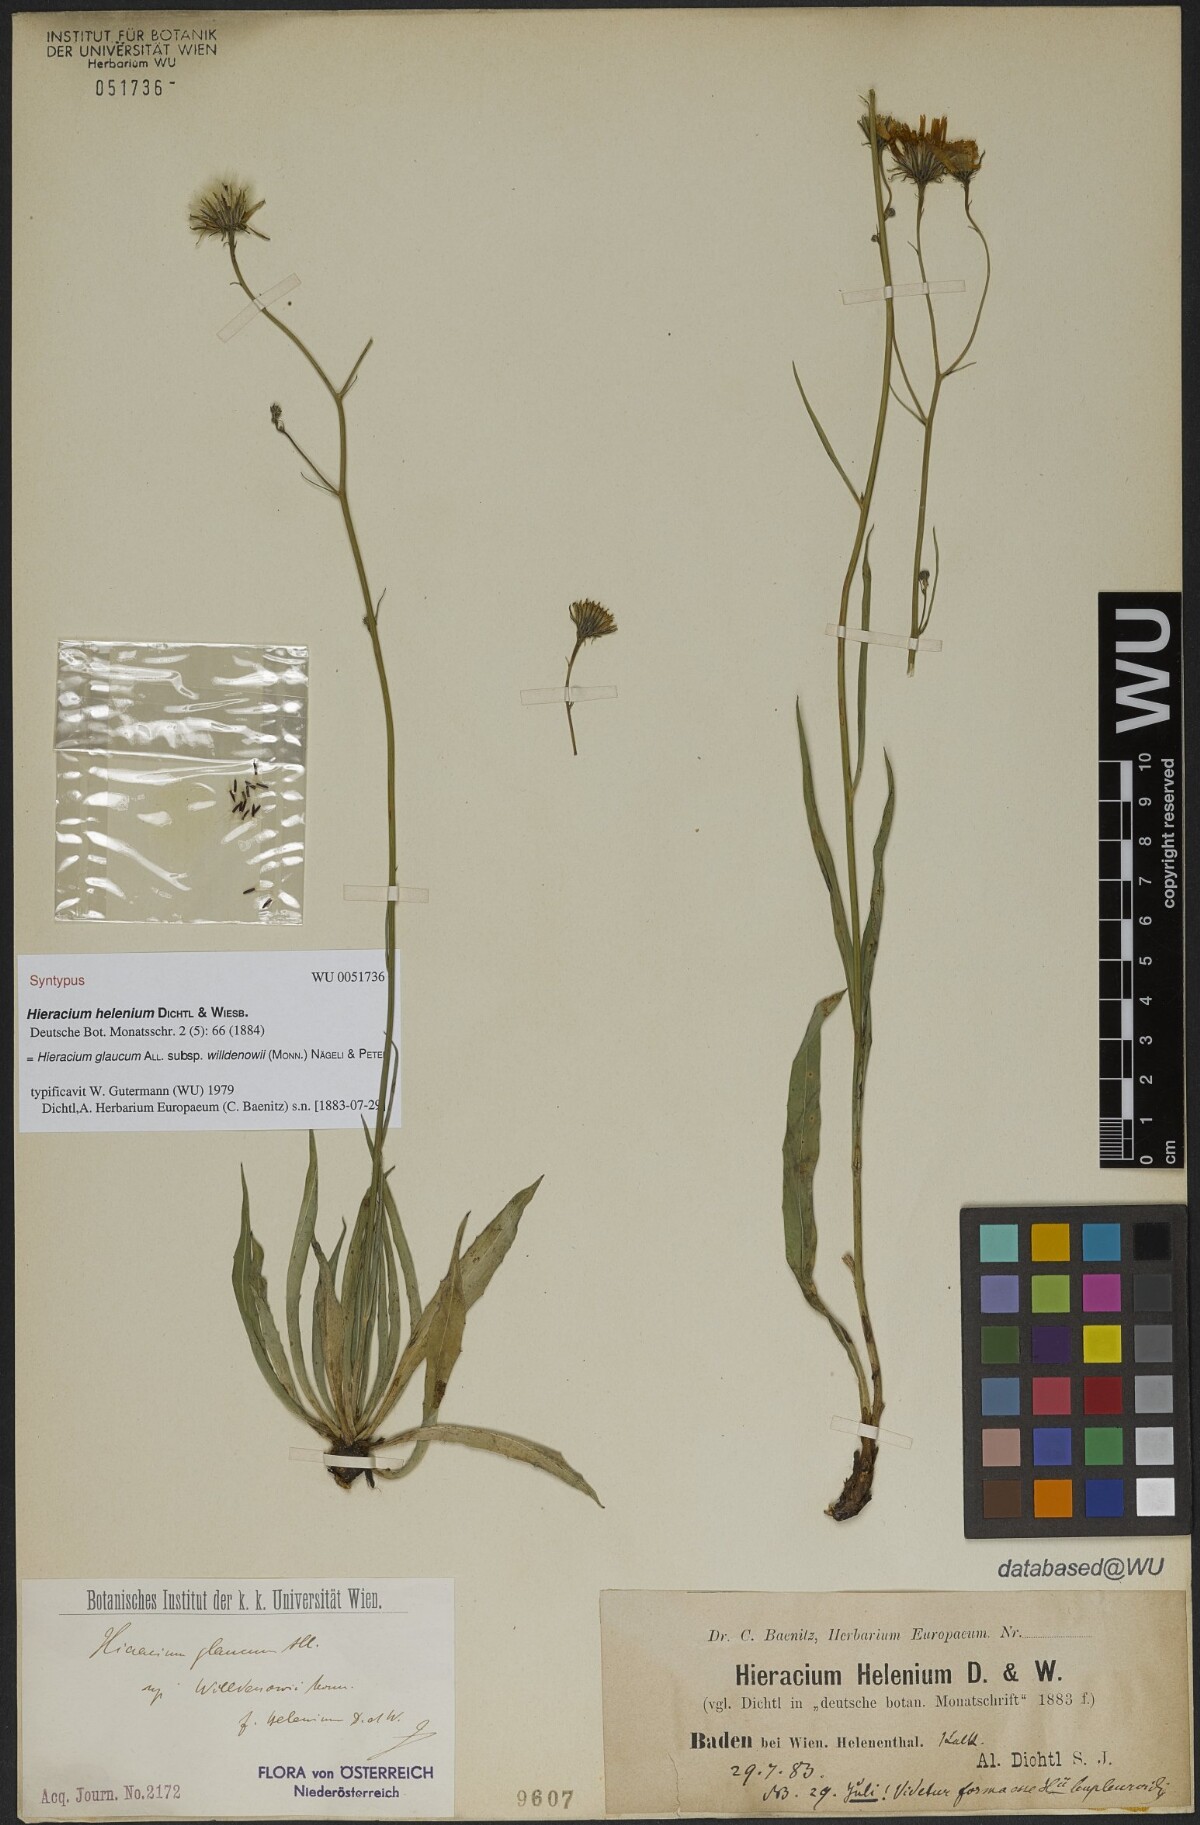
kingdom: Plantae
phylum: Tracheophyta
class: Magnoliopsida
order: Asterales
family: Asteraceae
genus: Hieracium
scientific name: Hieracium helenium
